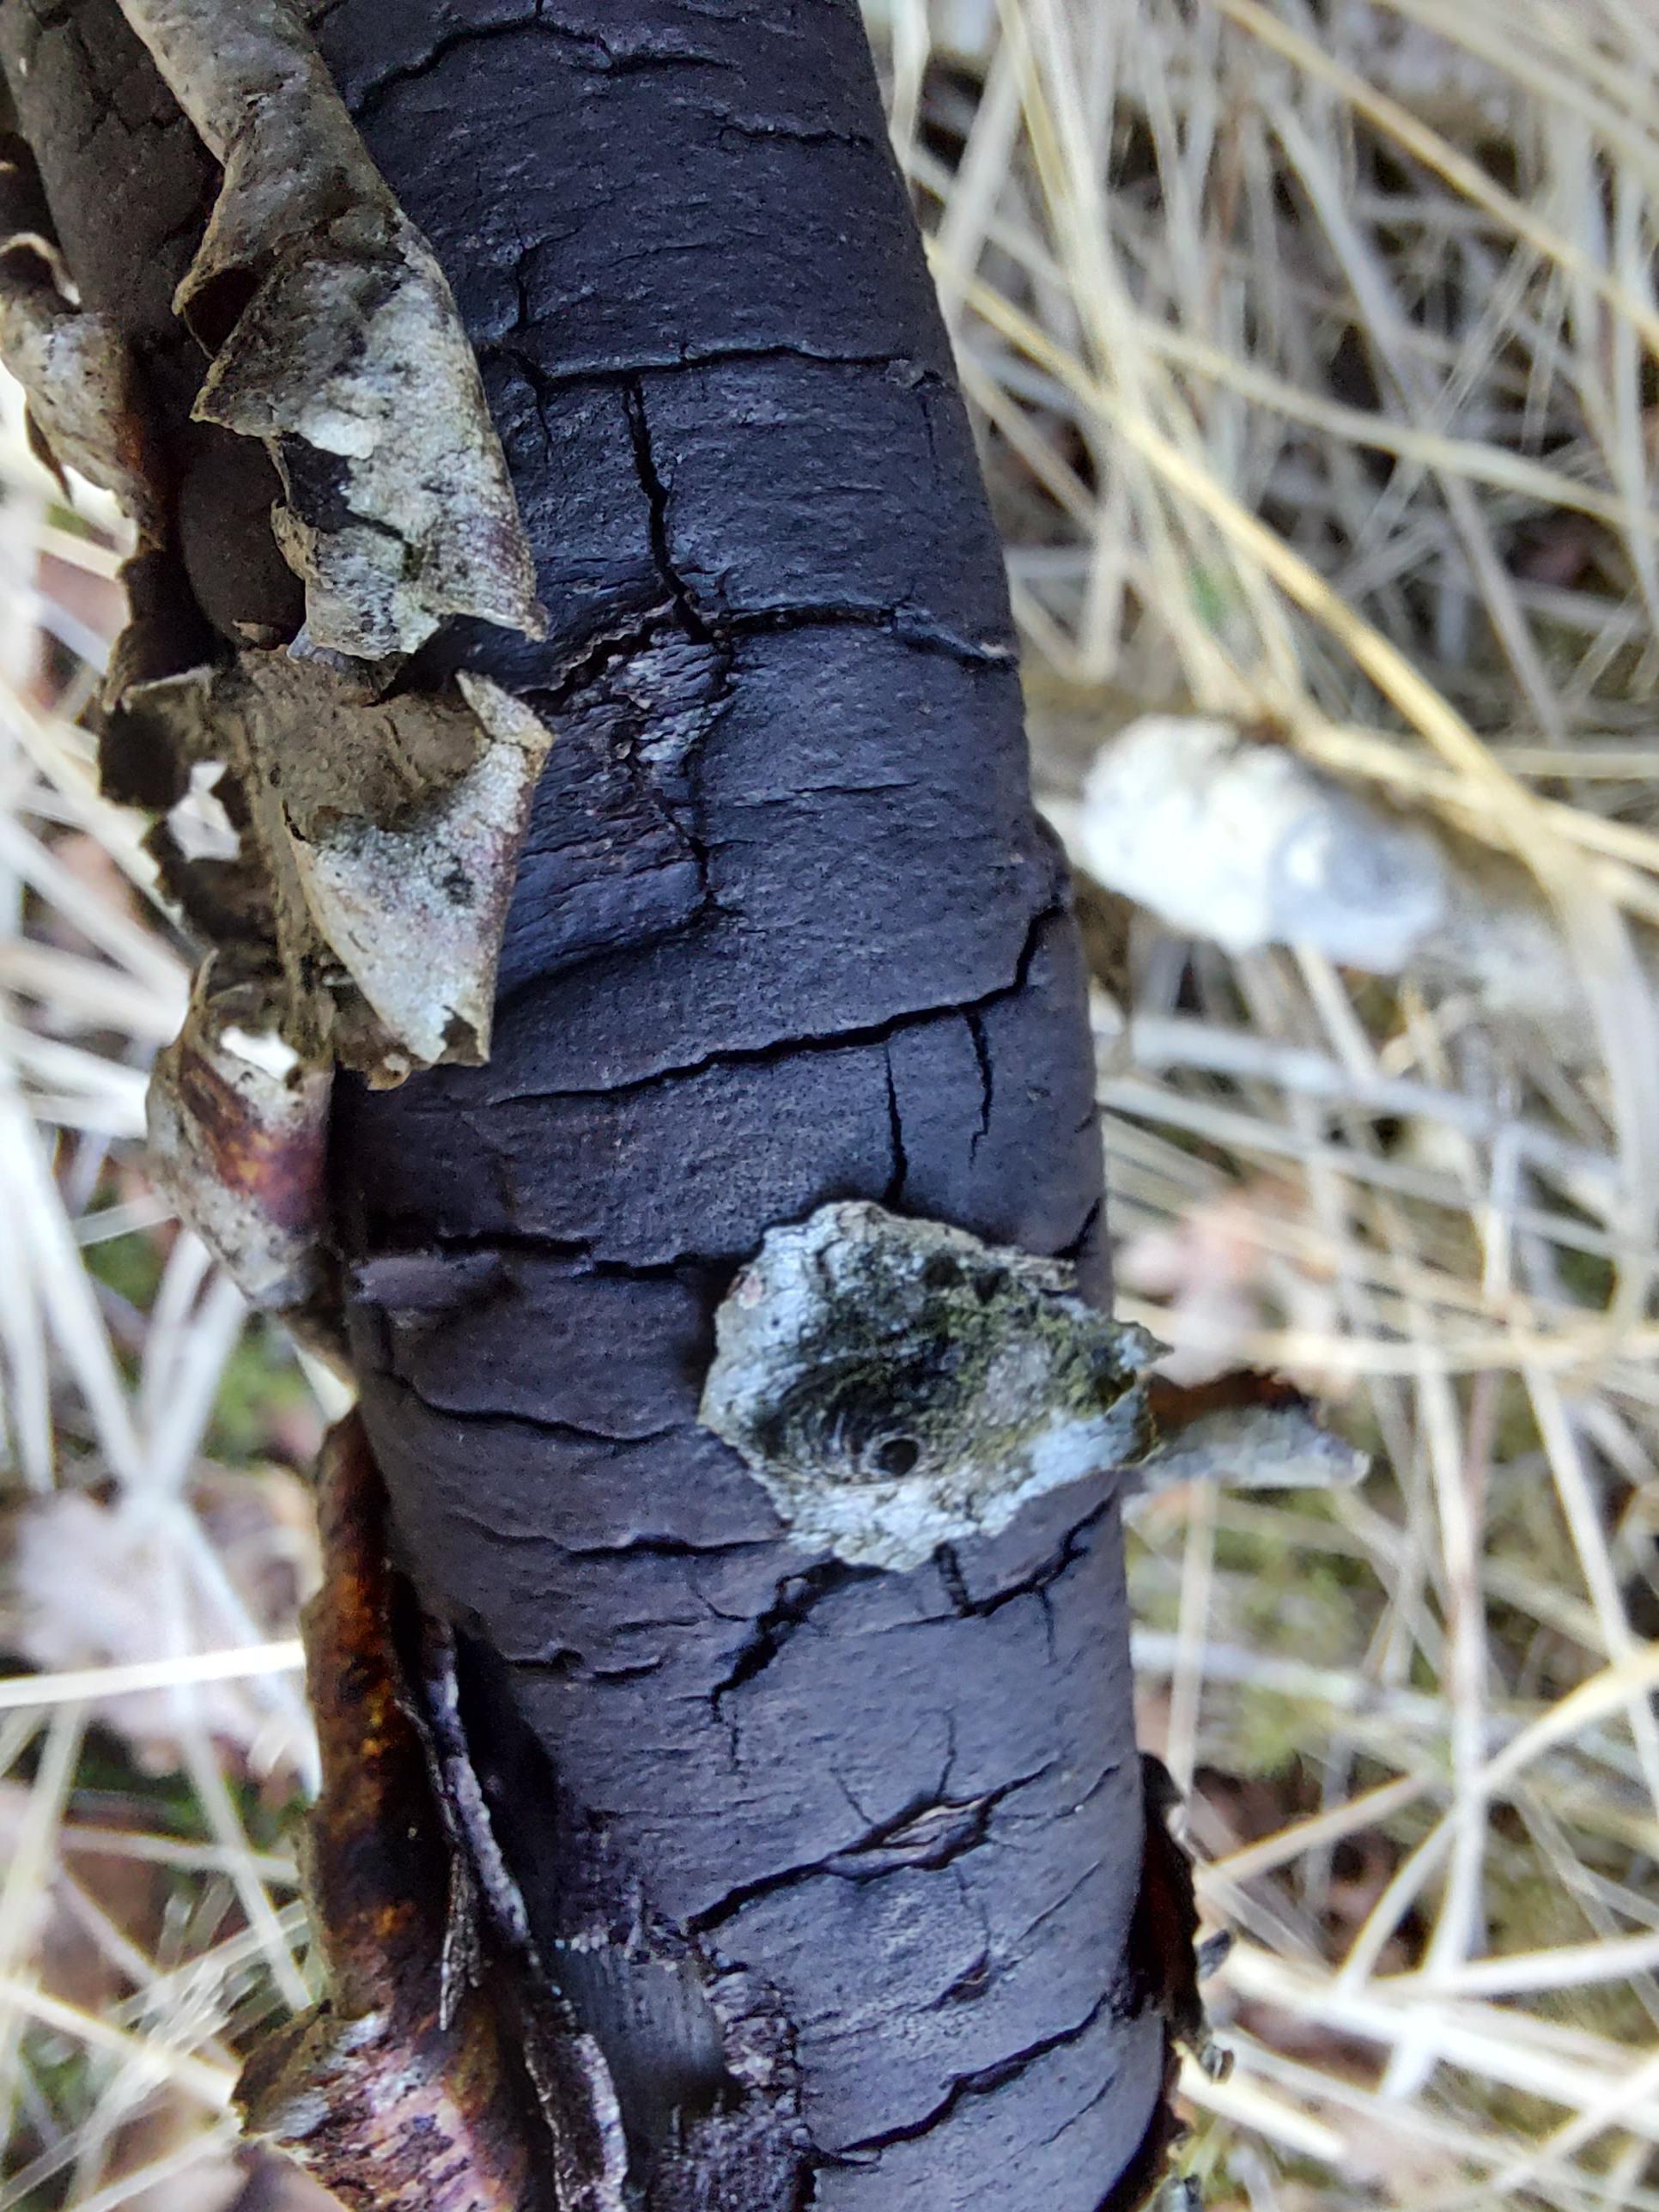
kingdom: Fungi
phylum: Ascomycota
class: Sordariomycetes
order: Xylariales
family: Diatrypaceae
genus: Diatrype
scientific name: Diatrype
